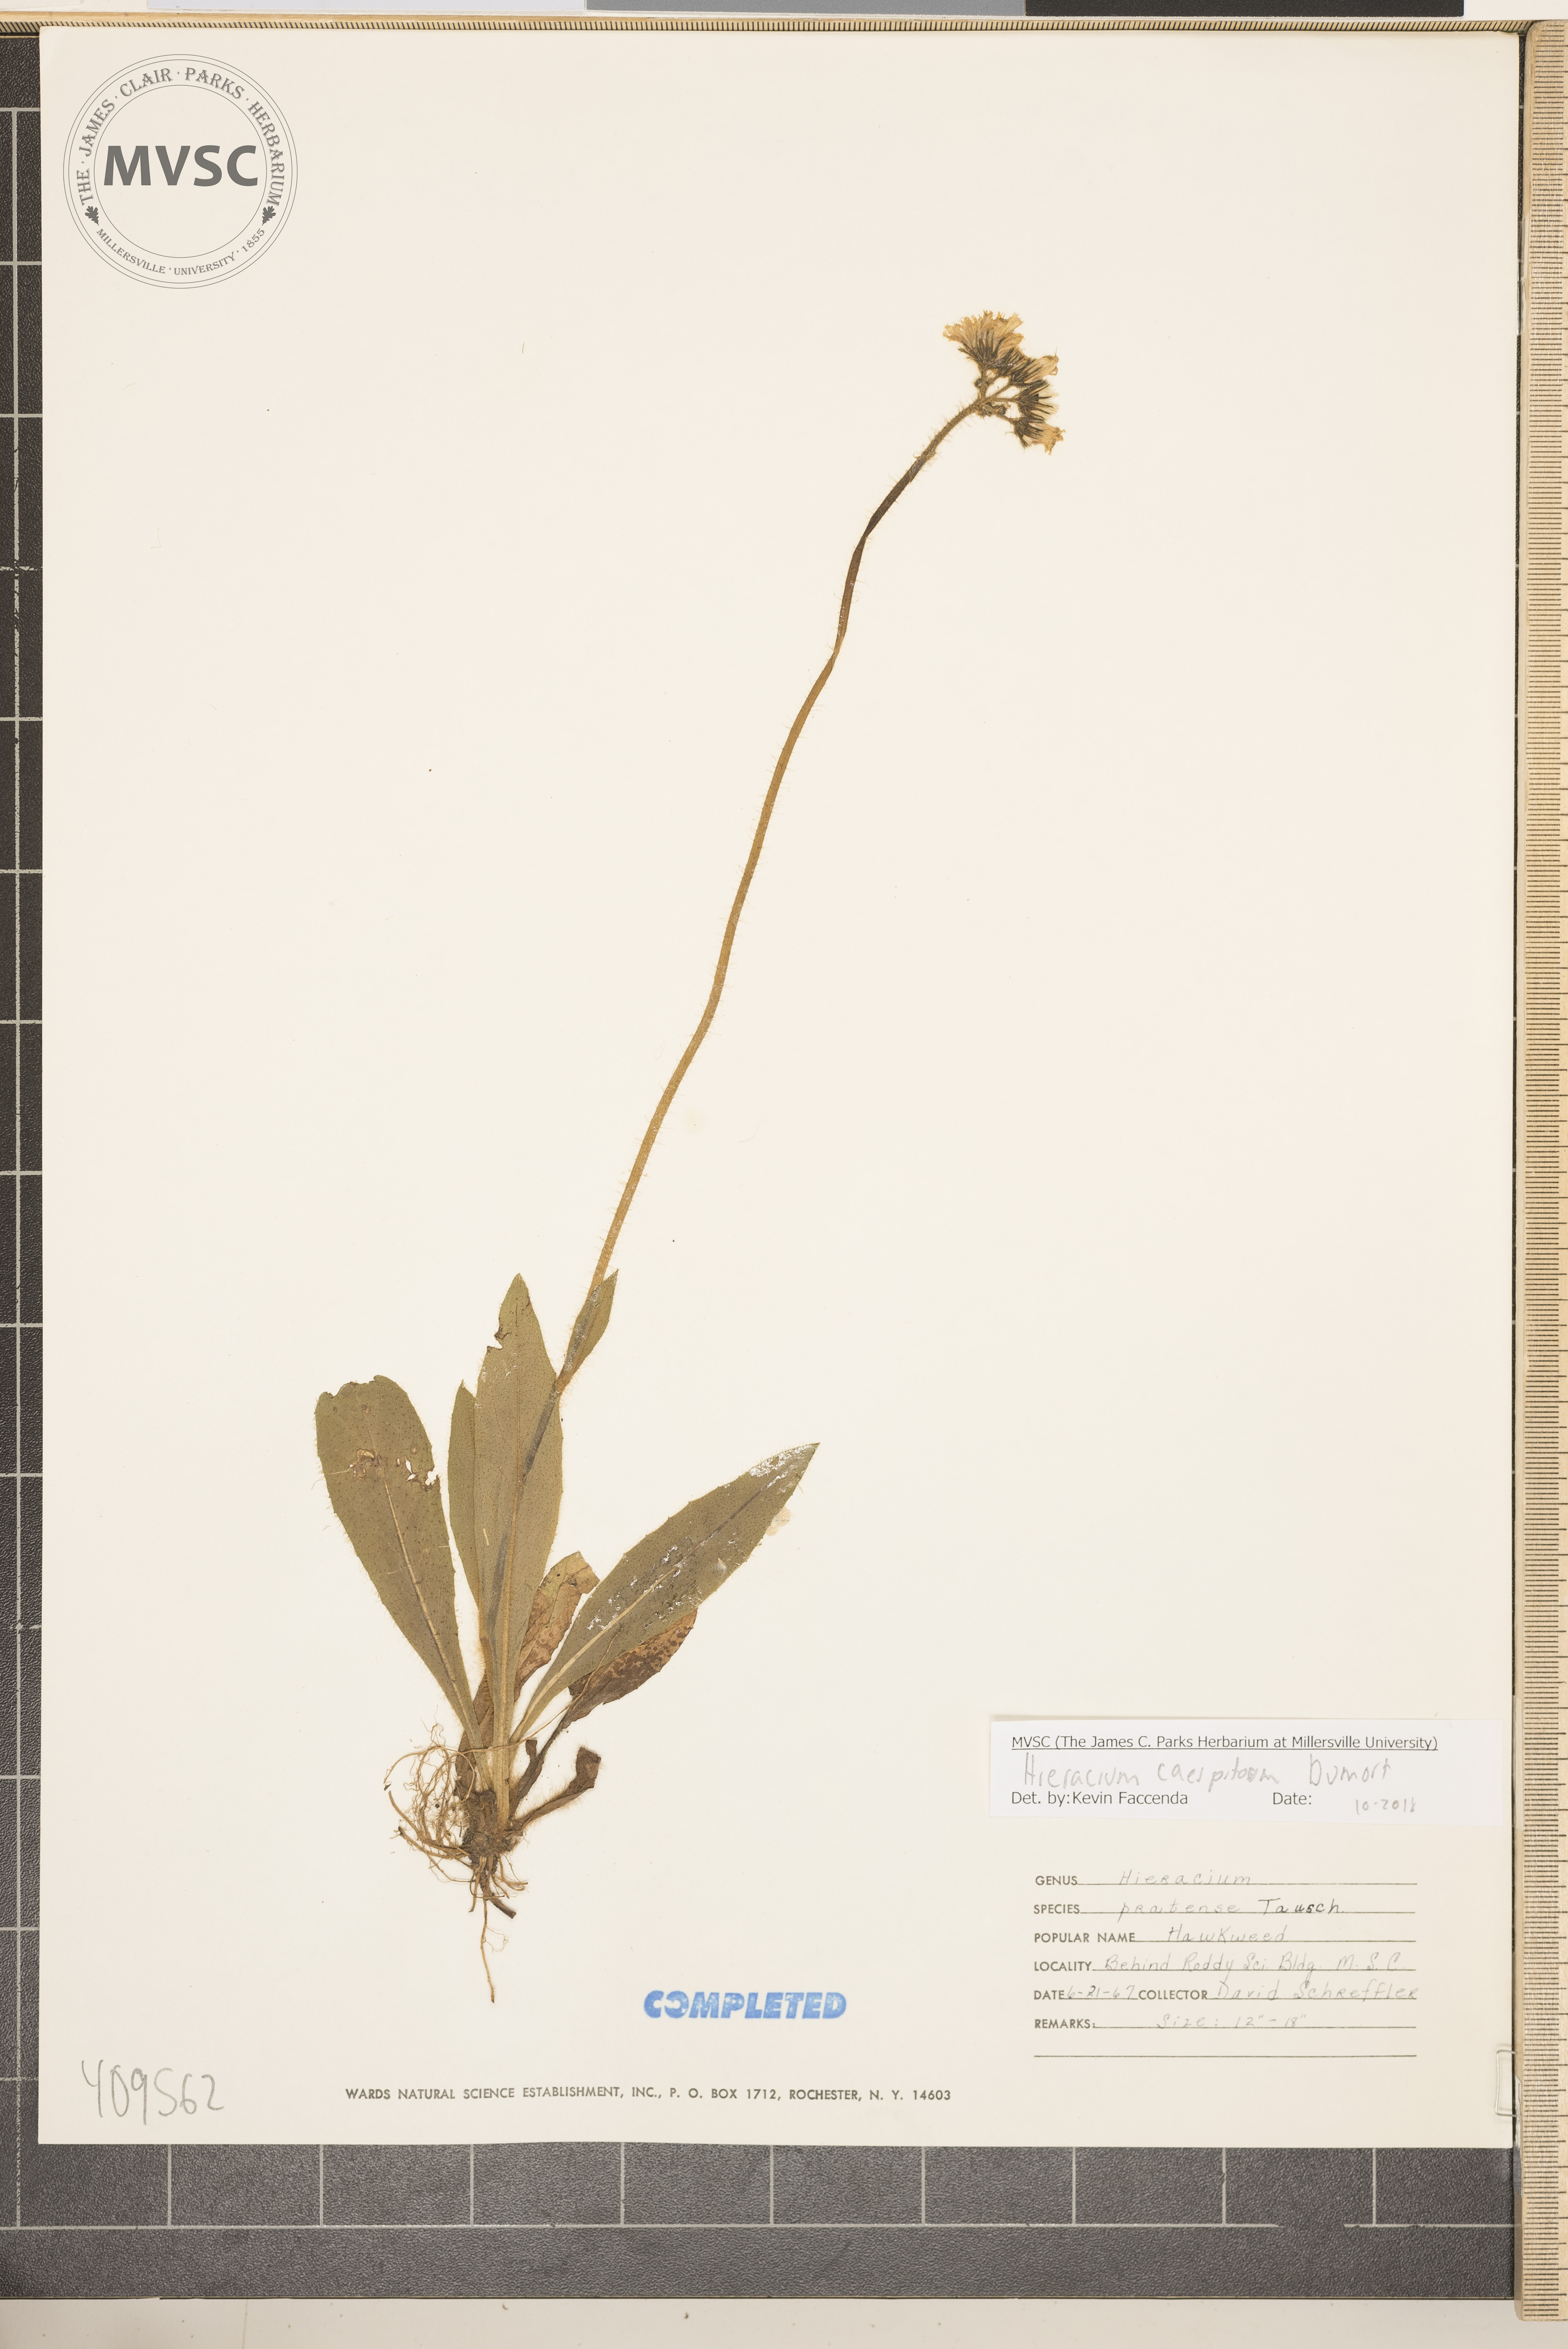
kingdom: Plantae
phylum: Tracheophyta
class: Magnoliopsida
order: Asterales
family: Asteraceae
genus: Pilosella
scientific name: Pilosella caespitosa
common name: Yellow fox-and-cubs
